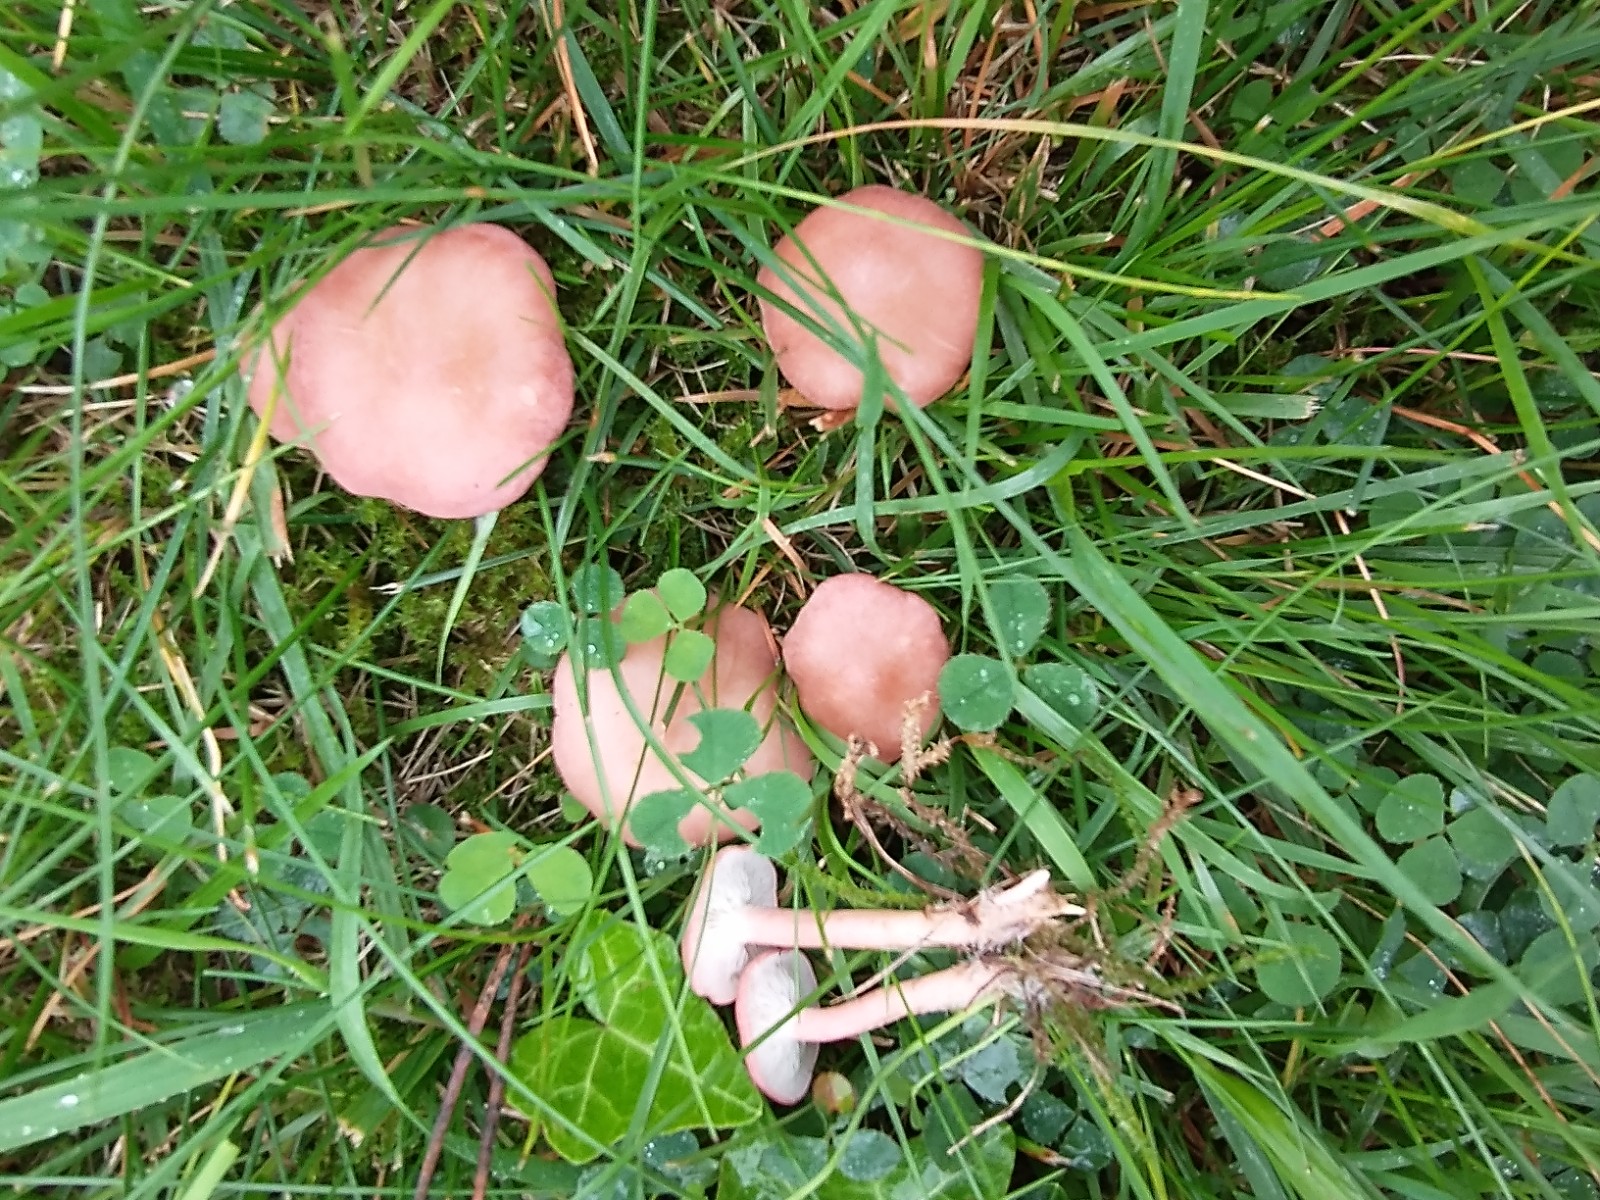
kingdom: Fungi
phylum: Basidiomycota
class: Agaricomycetes
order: Agaricales
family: Lyophyllaceae
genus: Calocybe
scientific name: Calocybe carnea
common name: rosa fagerhat
